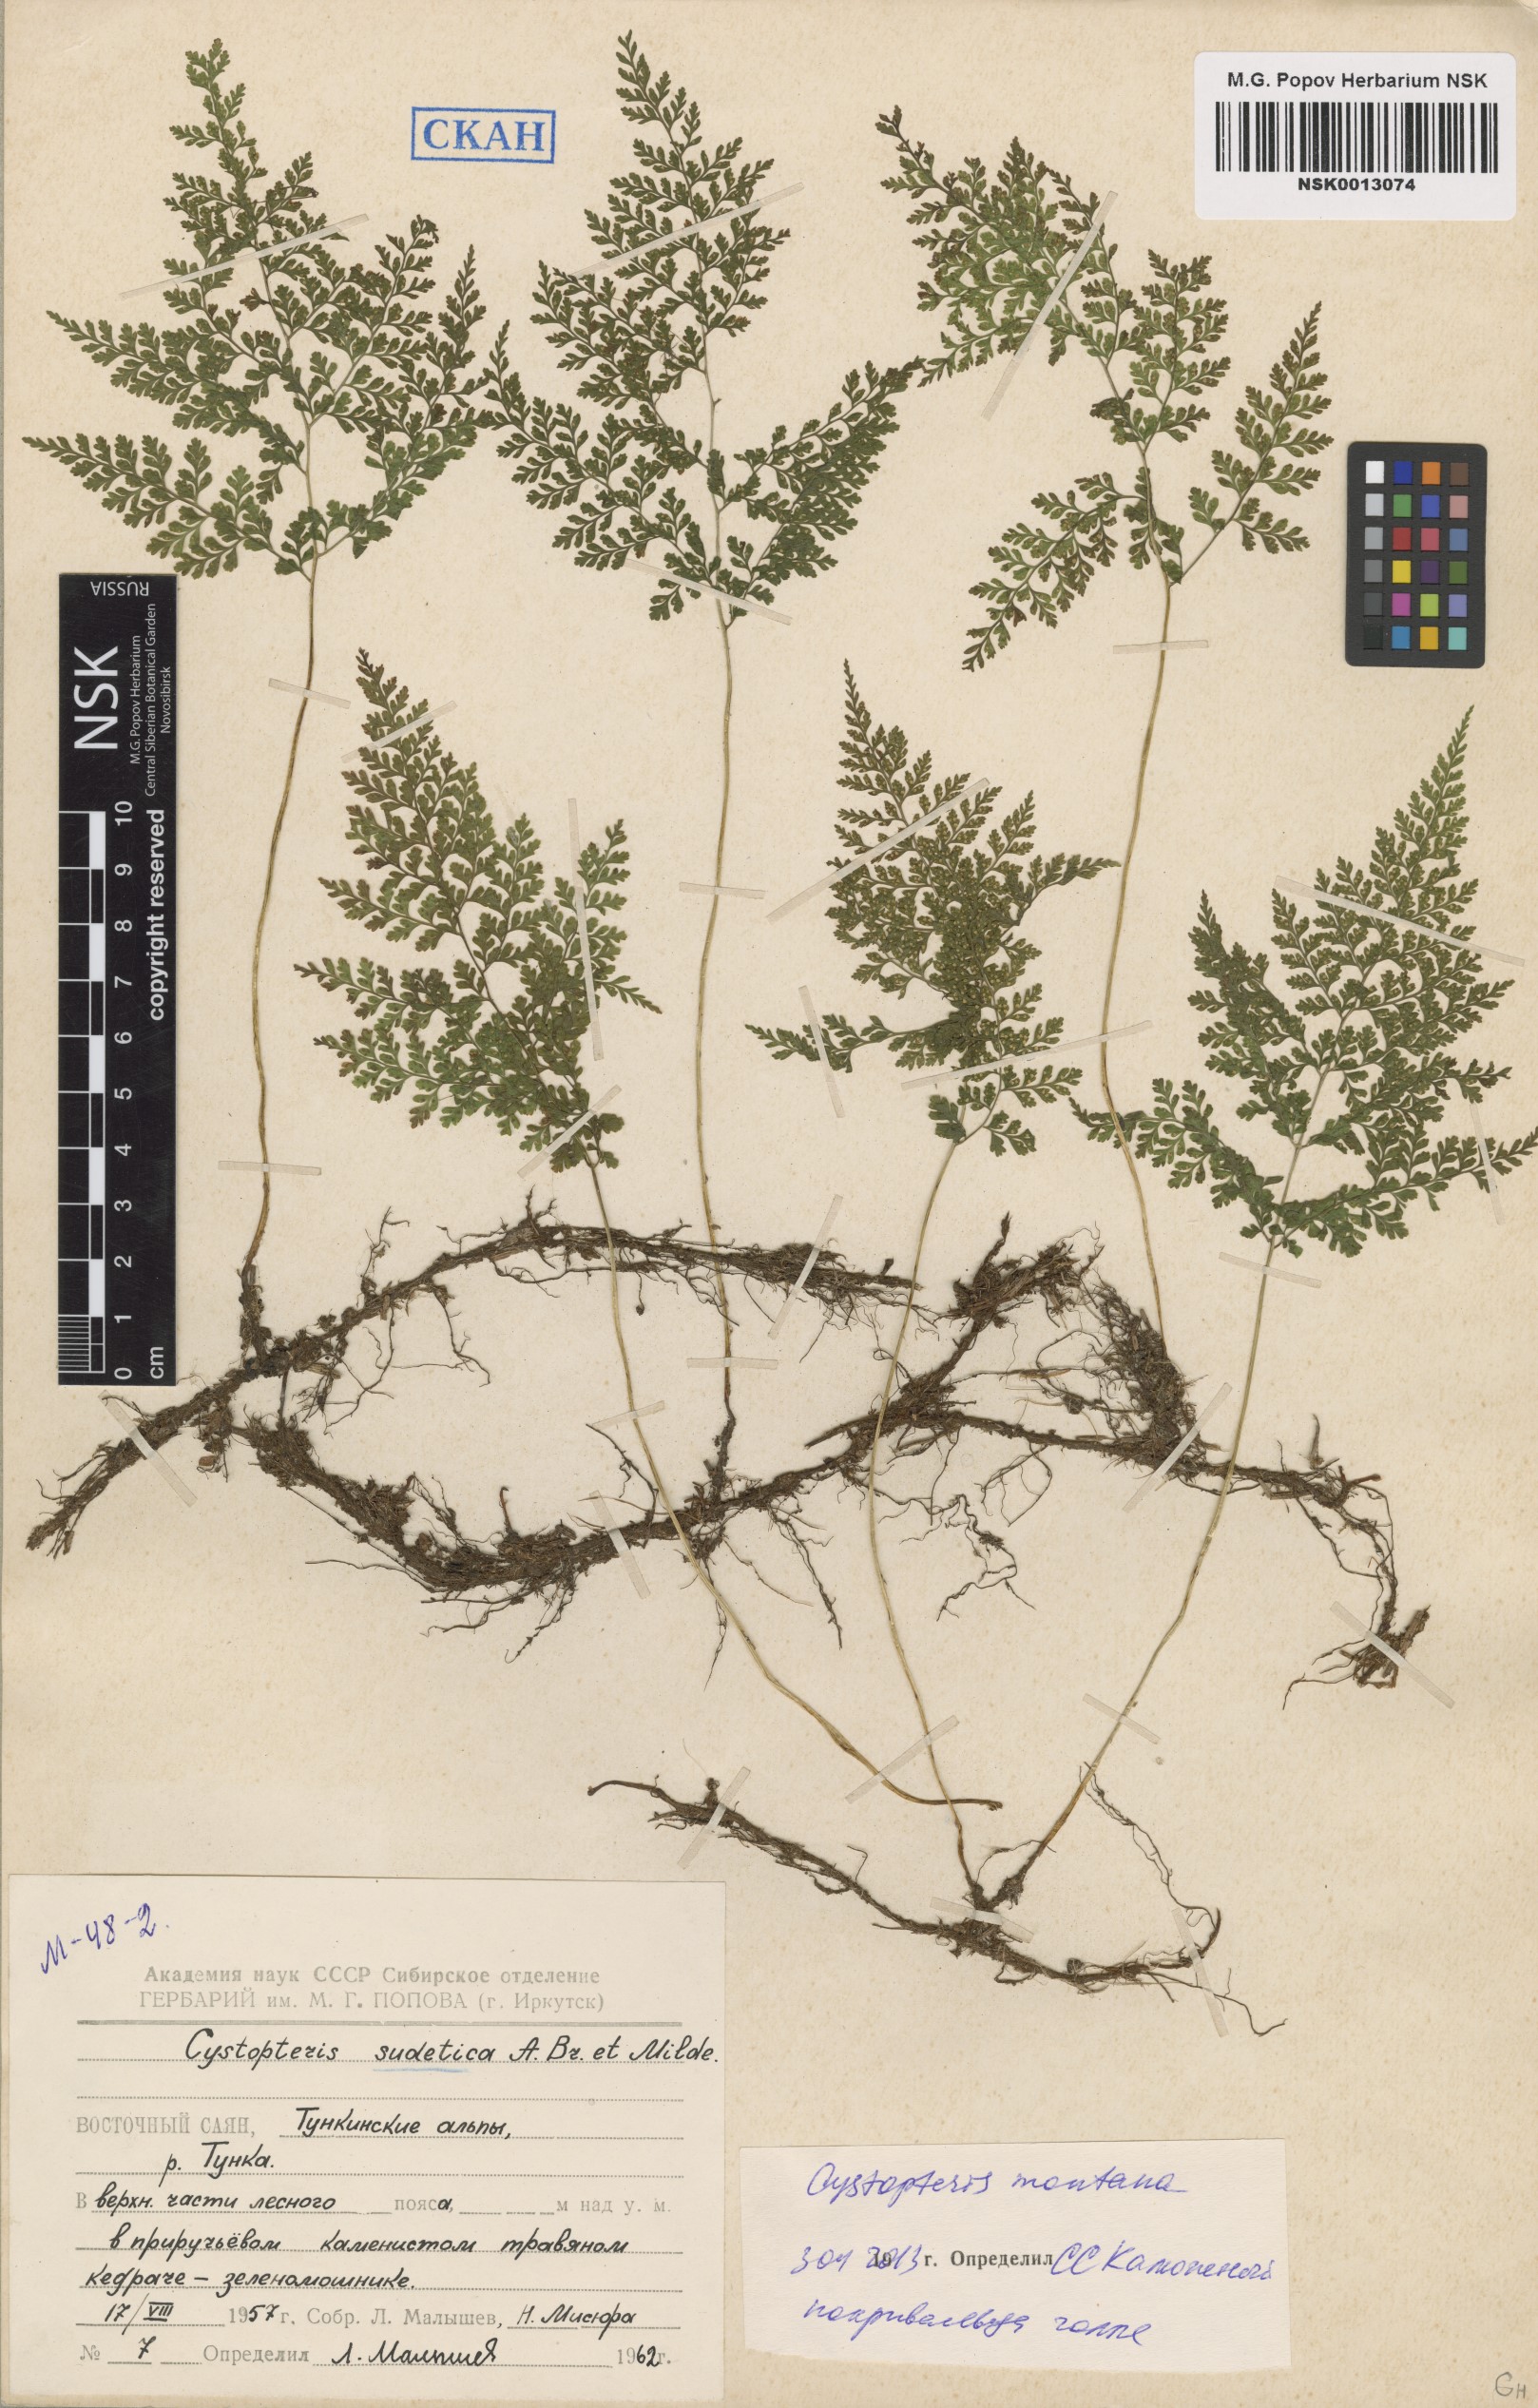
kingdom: Plantae
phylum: Tracheophyta
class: Polypodiopsida
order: Polypodiales
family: Cystopteridaceae
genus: Cystopteris
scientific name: Cystopteris montana
